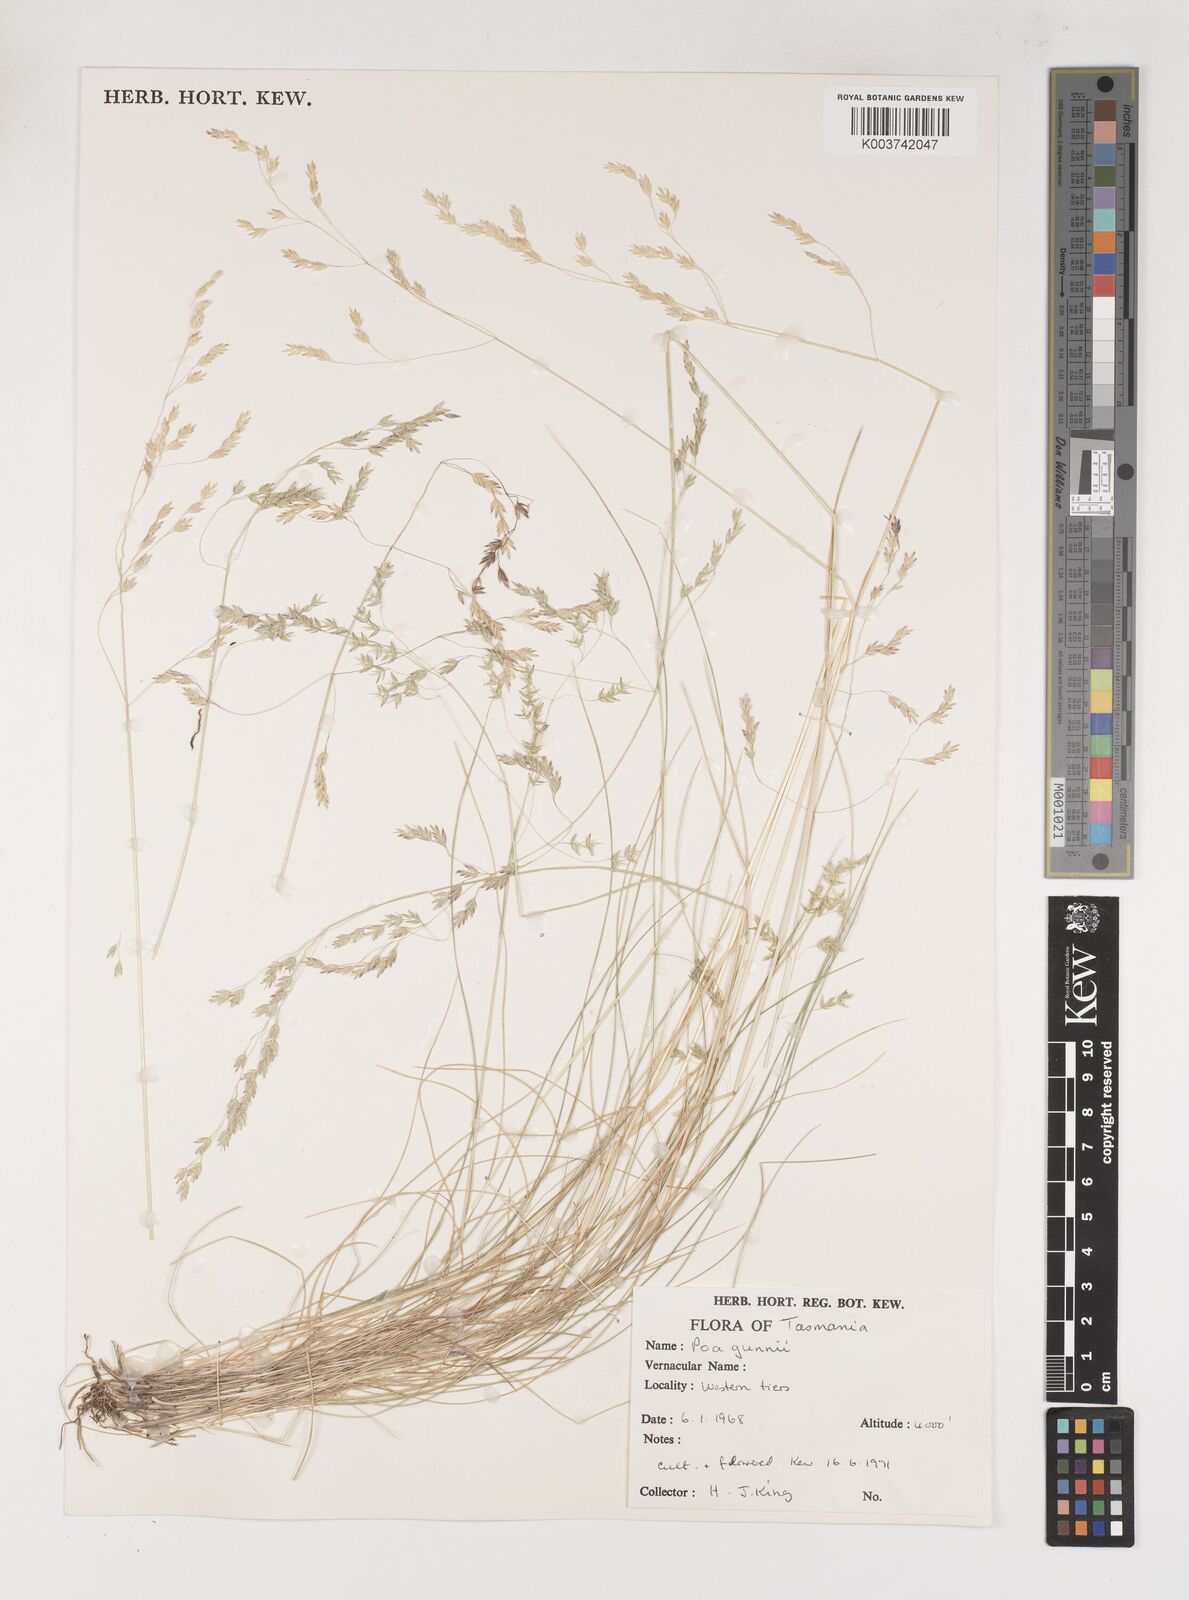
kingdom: Plantae
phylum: Tracheophyta
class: Liliopsida
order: Poales
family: Poaceae
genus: Poa
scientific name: Poa gunnii
